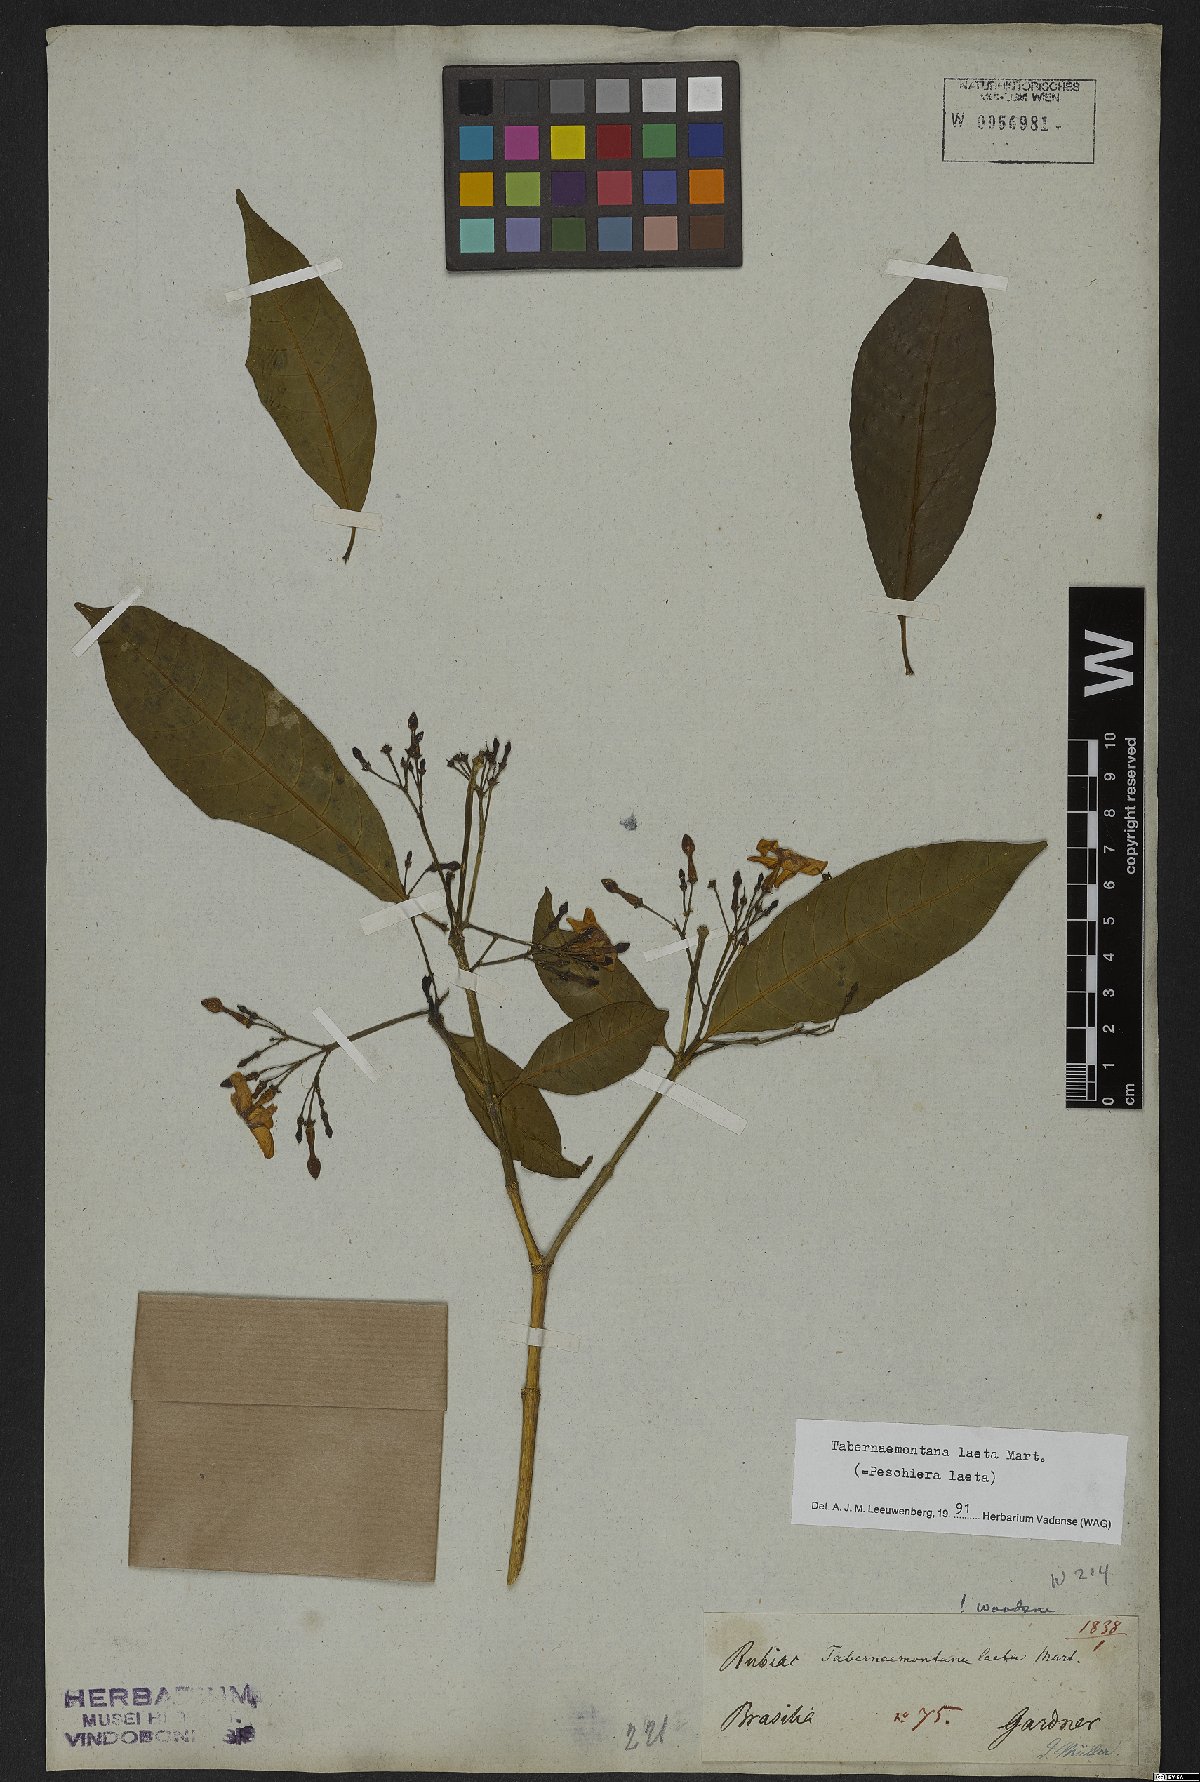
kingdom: Plantae
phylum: Tracheophyta
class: Magnoliopsida
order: Gentianales
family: Apocynaceae
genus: Tabernaemontana
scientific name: Tabernaemontana laeta
